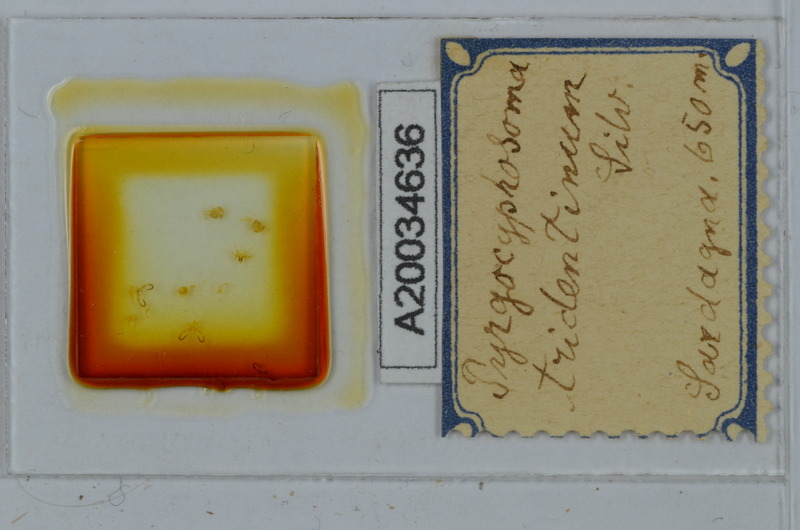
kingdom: Animalia
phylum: Arthropoda
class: Diplopoda
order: Chordeumatida
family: Craspedosomatidae
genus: Pyrgocyphosoma
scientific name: Pyrgocyphosoma tridentinum
